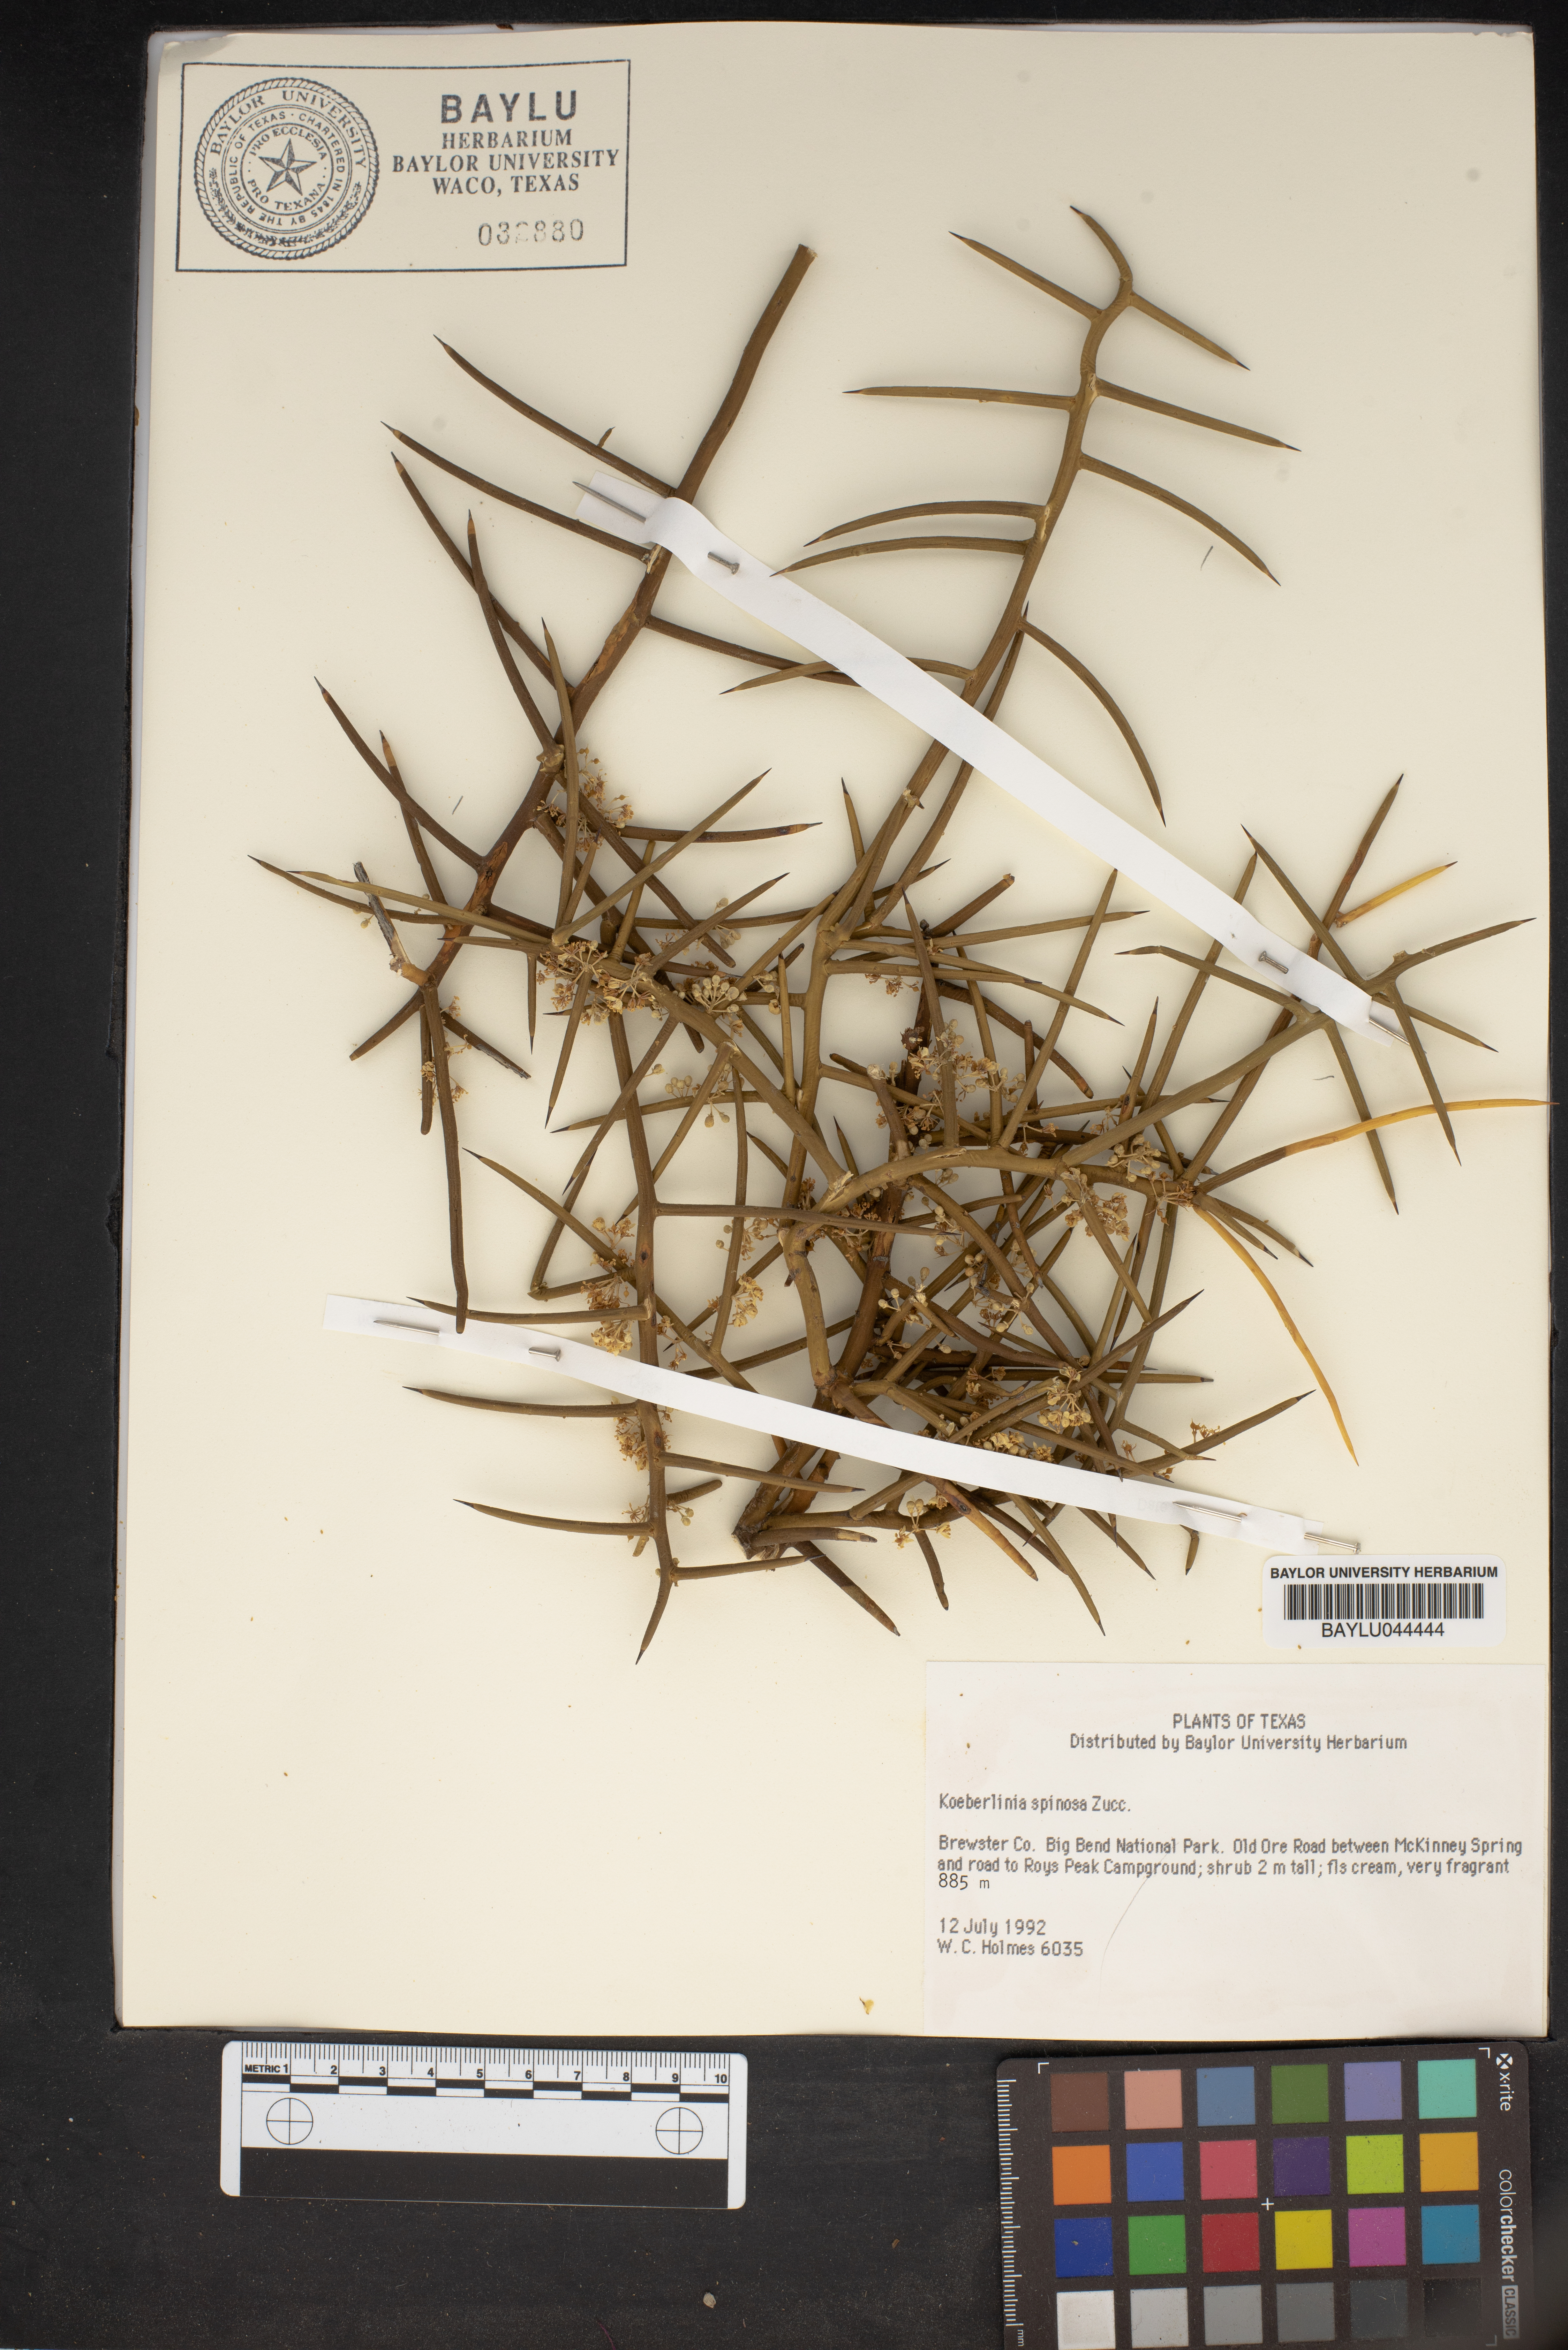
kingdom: Plantae
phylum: Tracheophyta
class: Magnoliopsida
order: Brassicales
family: Koeberliniaceae
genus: Koeberlinia
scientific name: Koeberlinia spinosa
